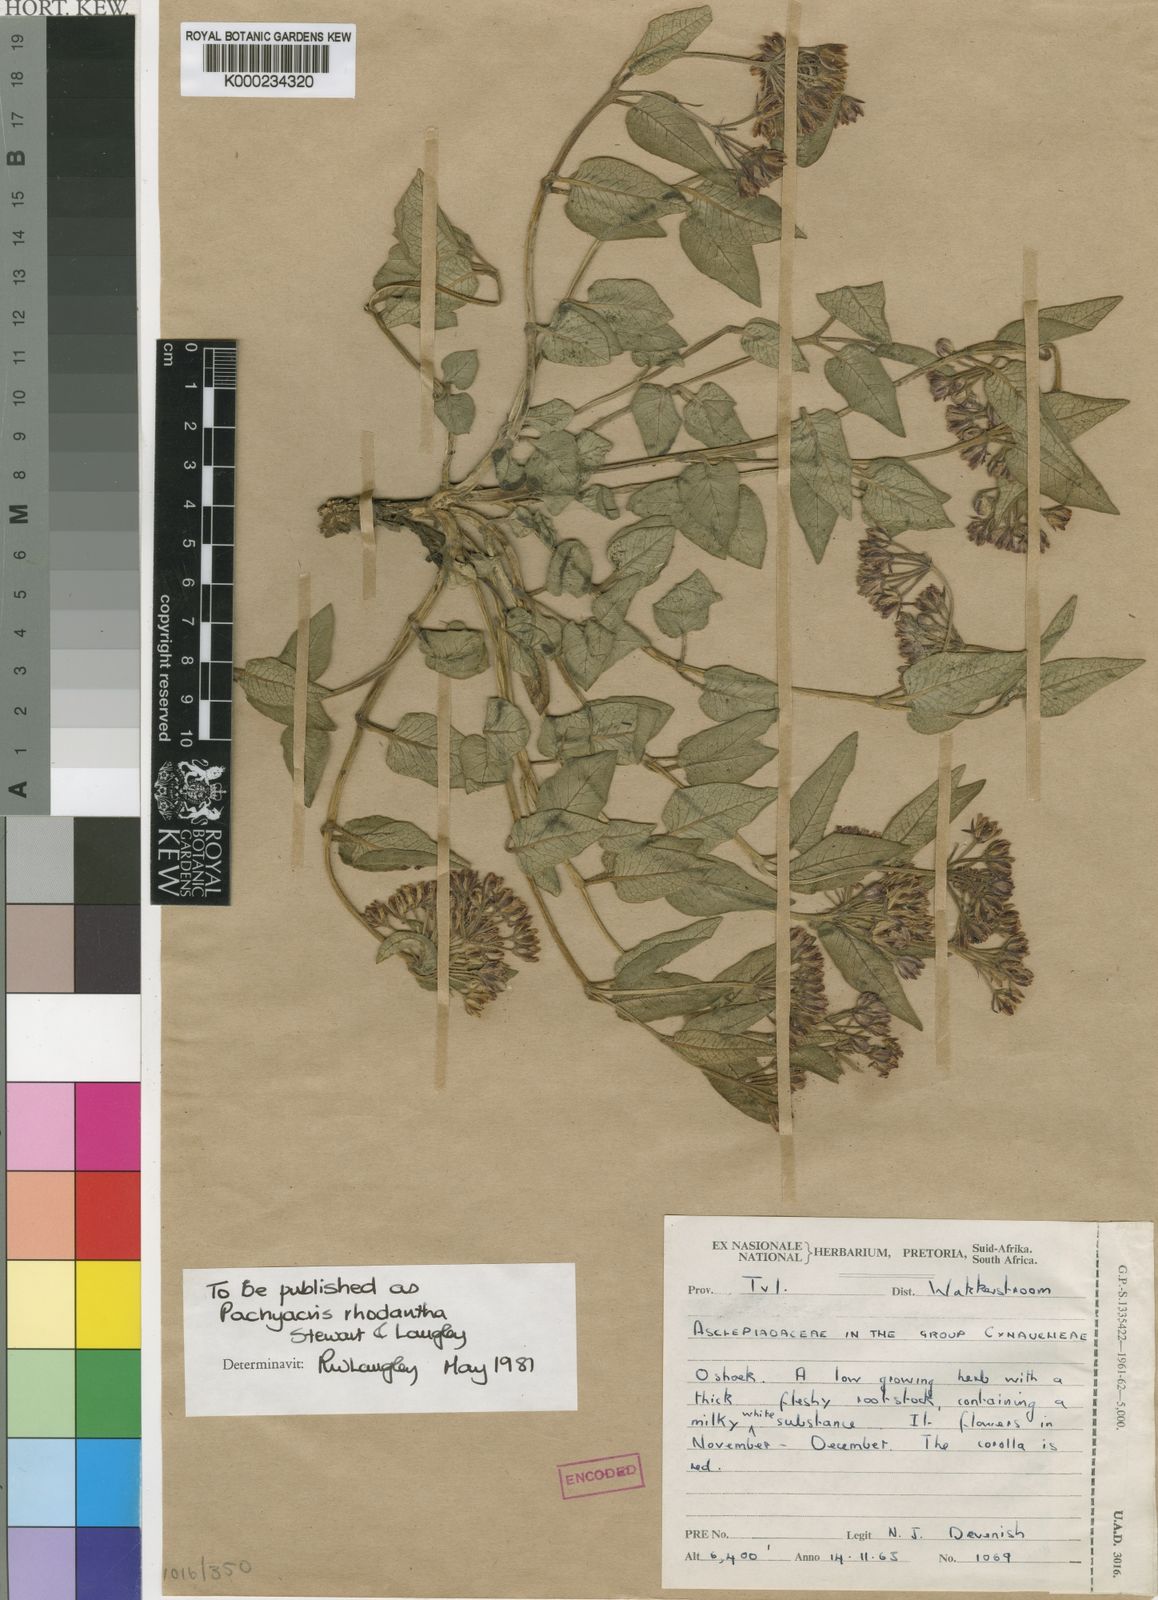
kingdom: Animalia
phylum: Arthropoda
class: Insecta
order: Orthoptera
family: Acrididae
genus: Pachyacris
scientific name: Pachyacris
